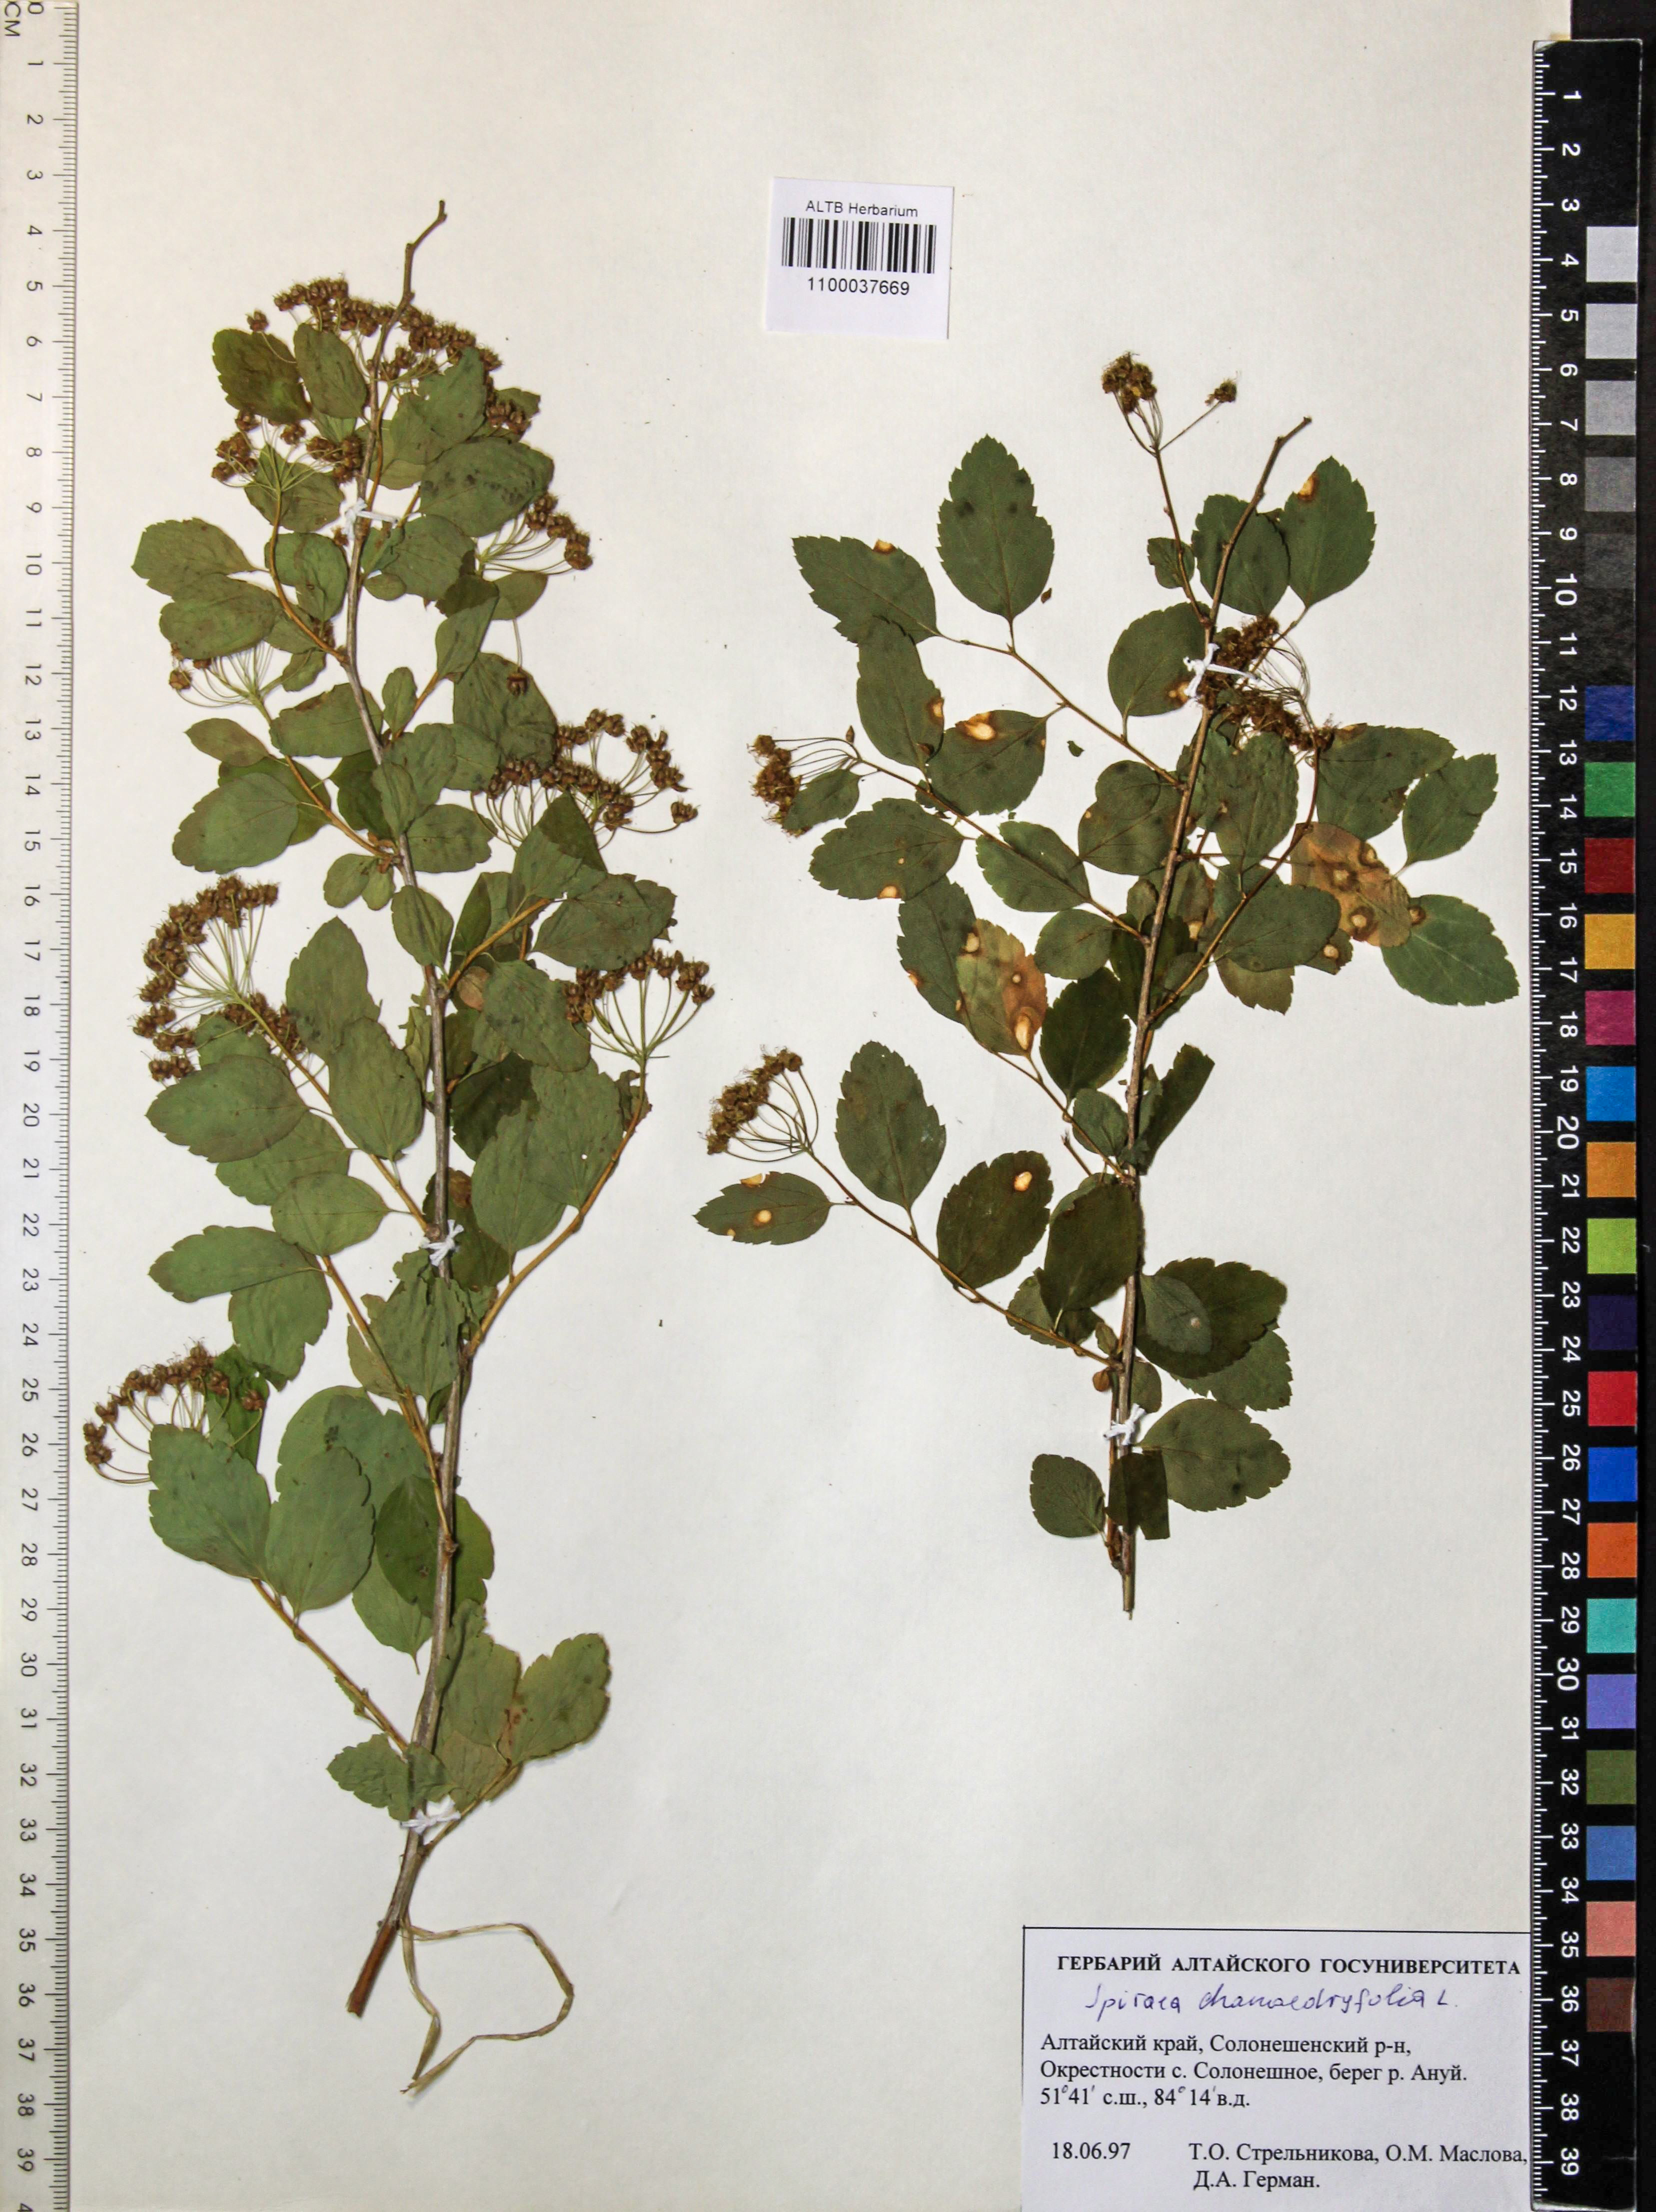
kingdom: Plantae
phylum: Tracheophyta
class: Magnoliopsida
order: Rosales
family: Rosaceae
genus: Spiraea
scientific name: Spiraea chamaedryfolia
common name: Elm-leaved spiraea
